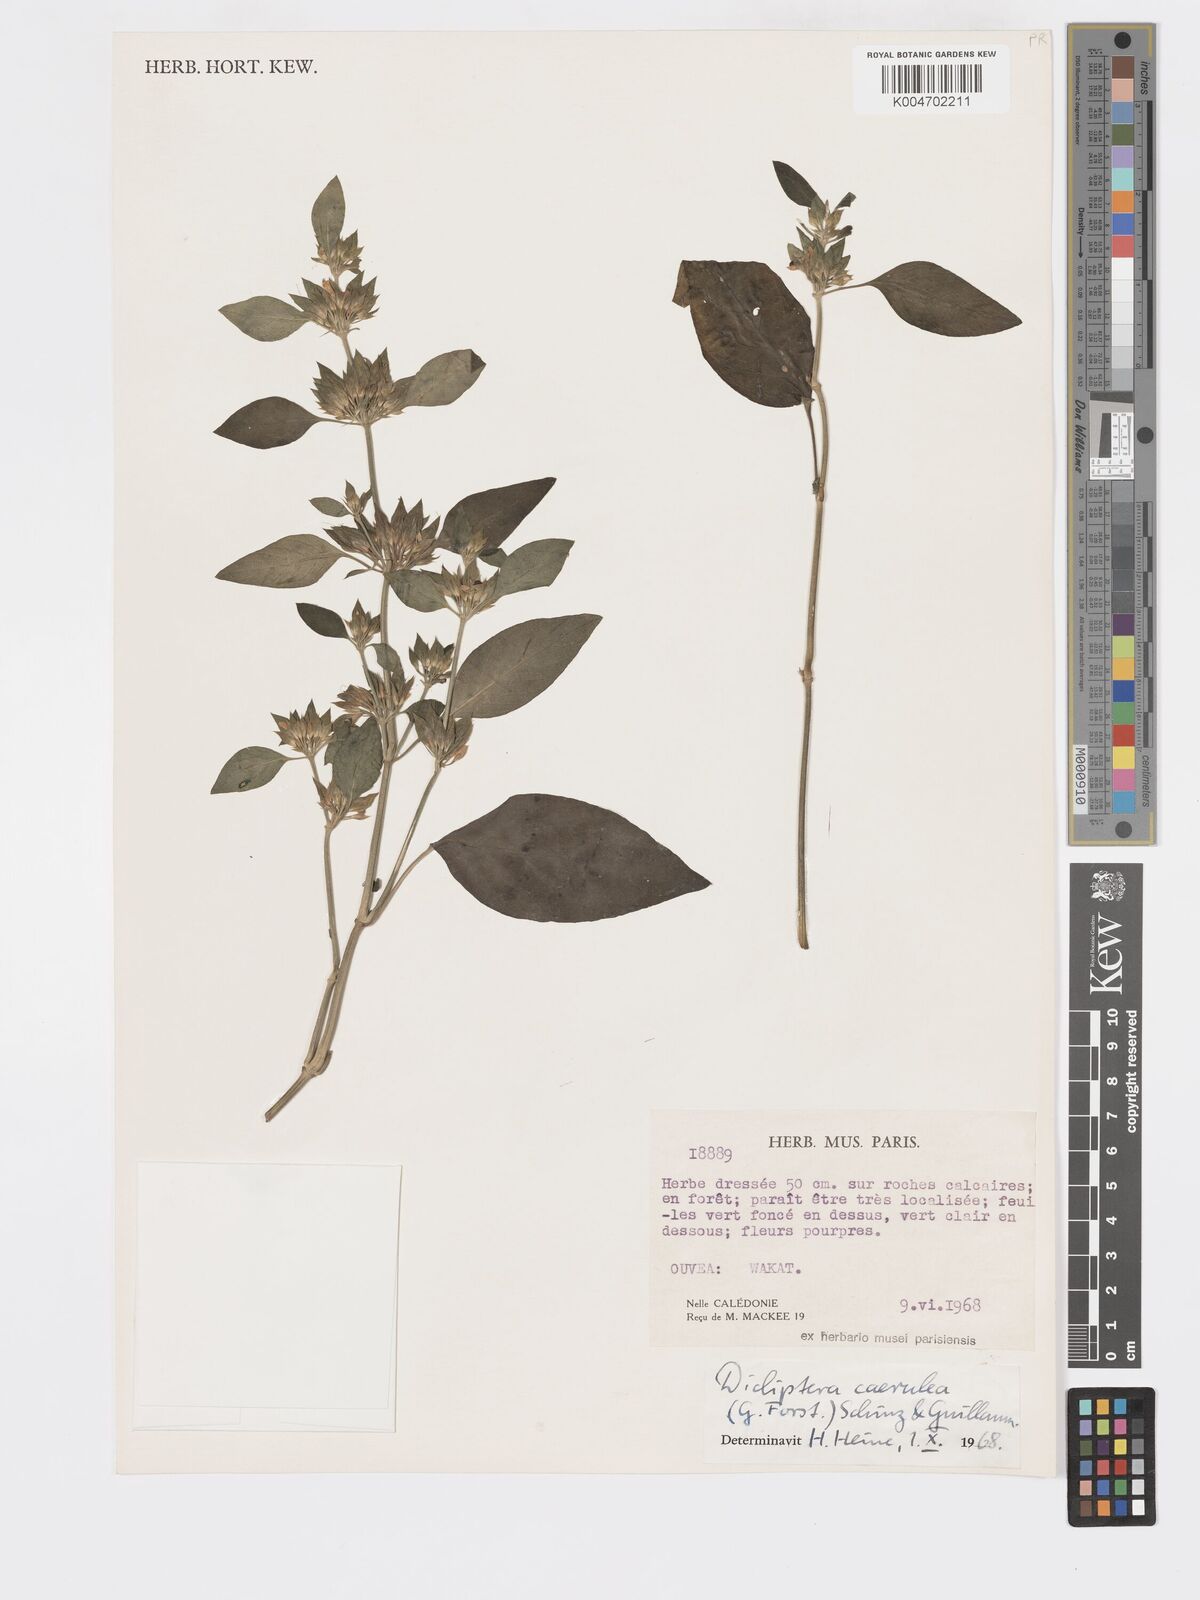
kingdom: Plantae
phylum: Tracheophyta
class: Magnoliopsida
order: Lamiales
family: Acanthaceae
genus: Rungia
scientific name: Rungia parviflora
